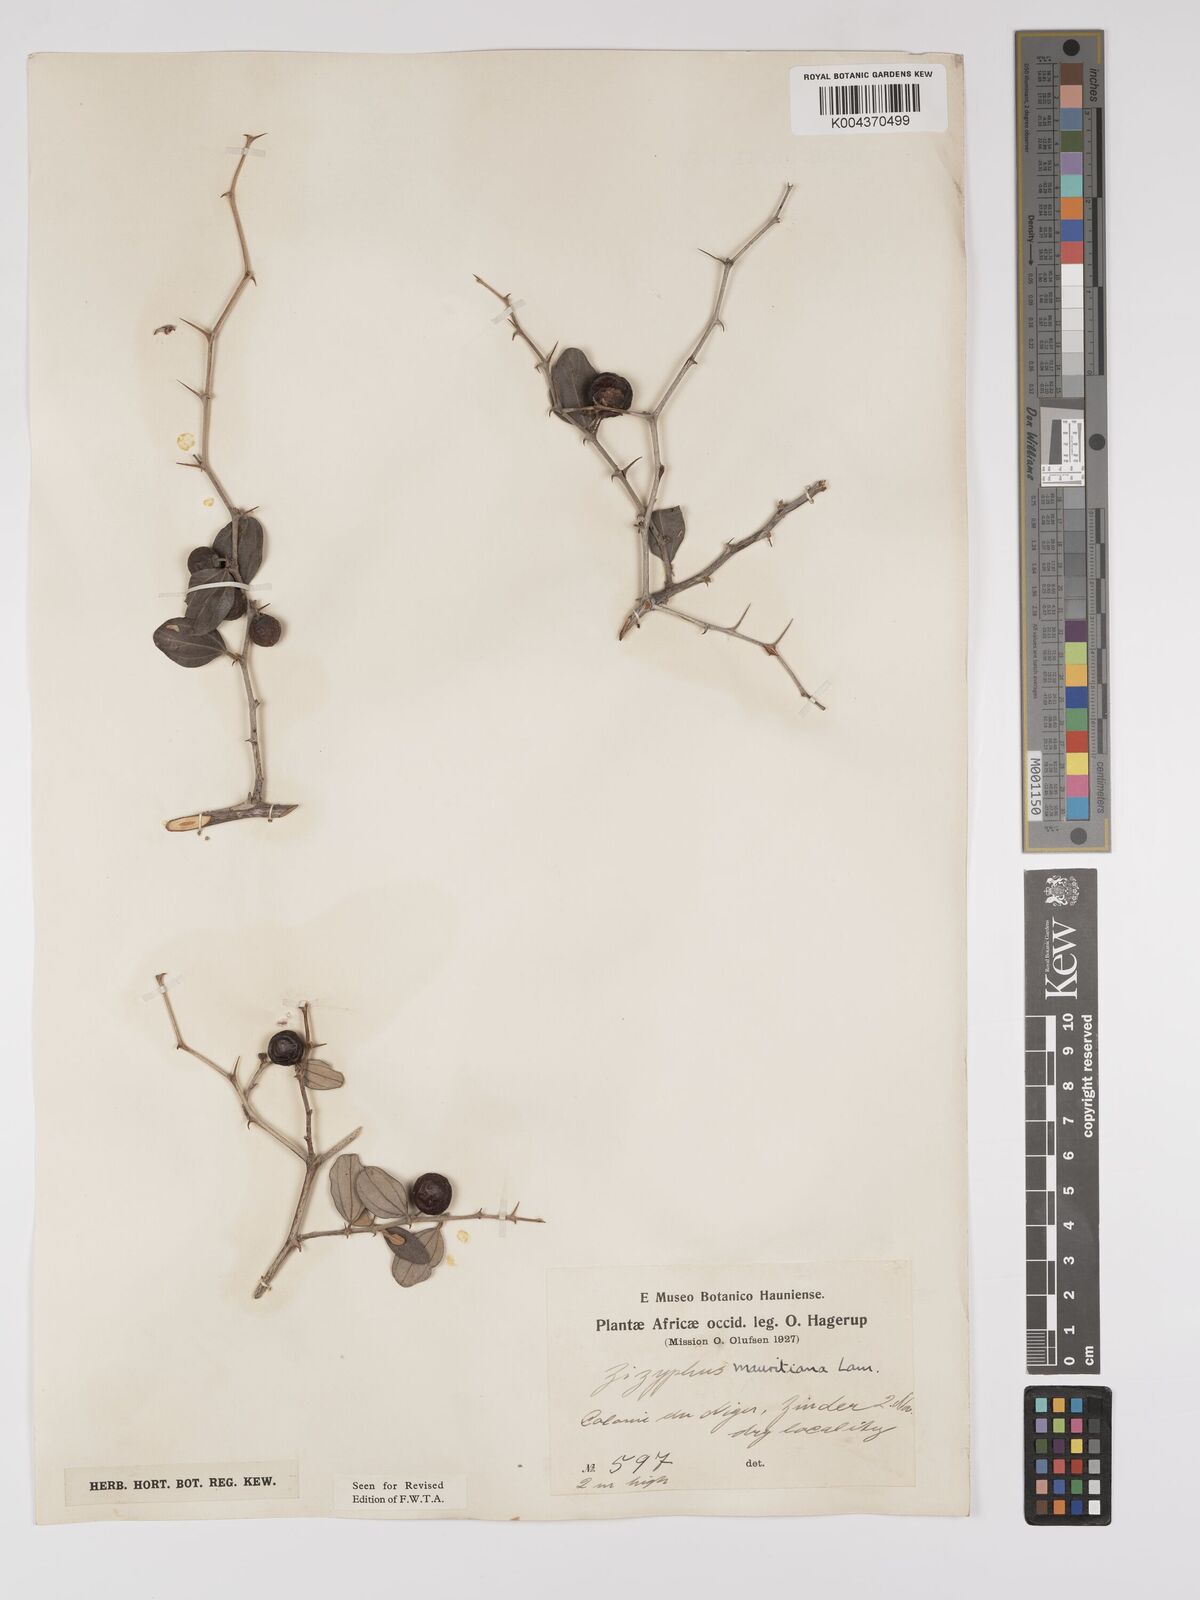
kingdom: Plantae
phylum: Tracheophyta
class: Magnoliopsida
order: Rosales
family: Rhamnaceae
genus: Ziziphus
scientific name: Ziziphus mauritiana
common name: Indian jujube
